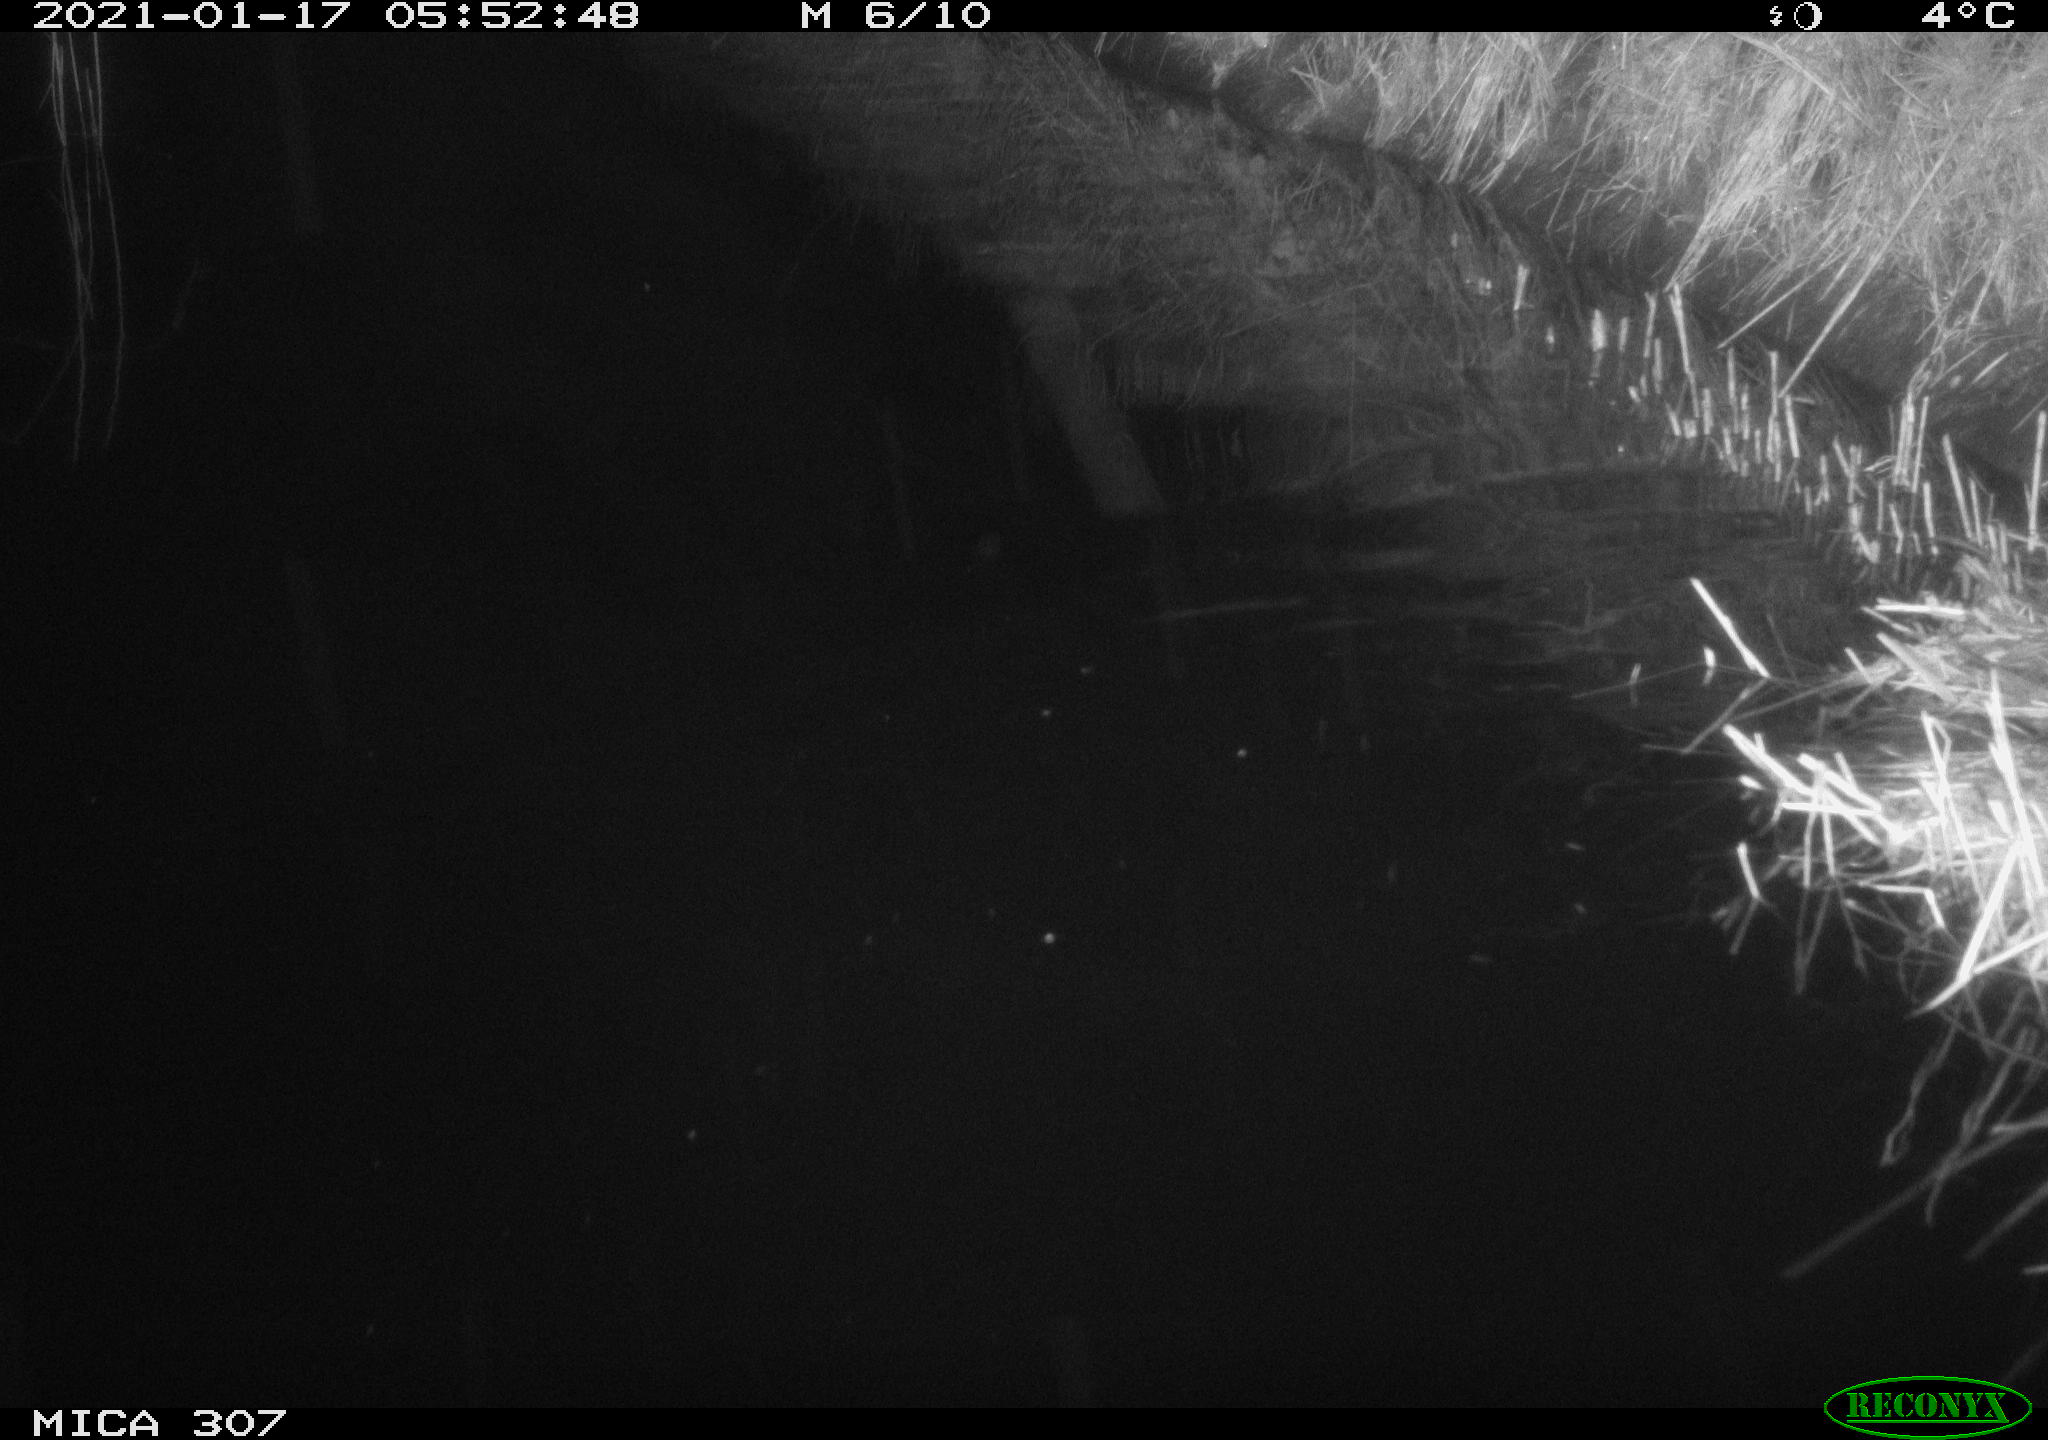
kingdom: Animalia
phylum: Chordata
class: Mammalia
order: Rodentia
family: Muridae
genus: Rattus
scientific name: Rattus norvegicus
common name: Brown rat
